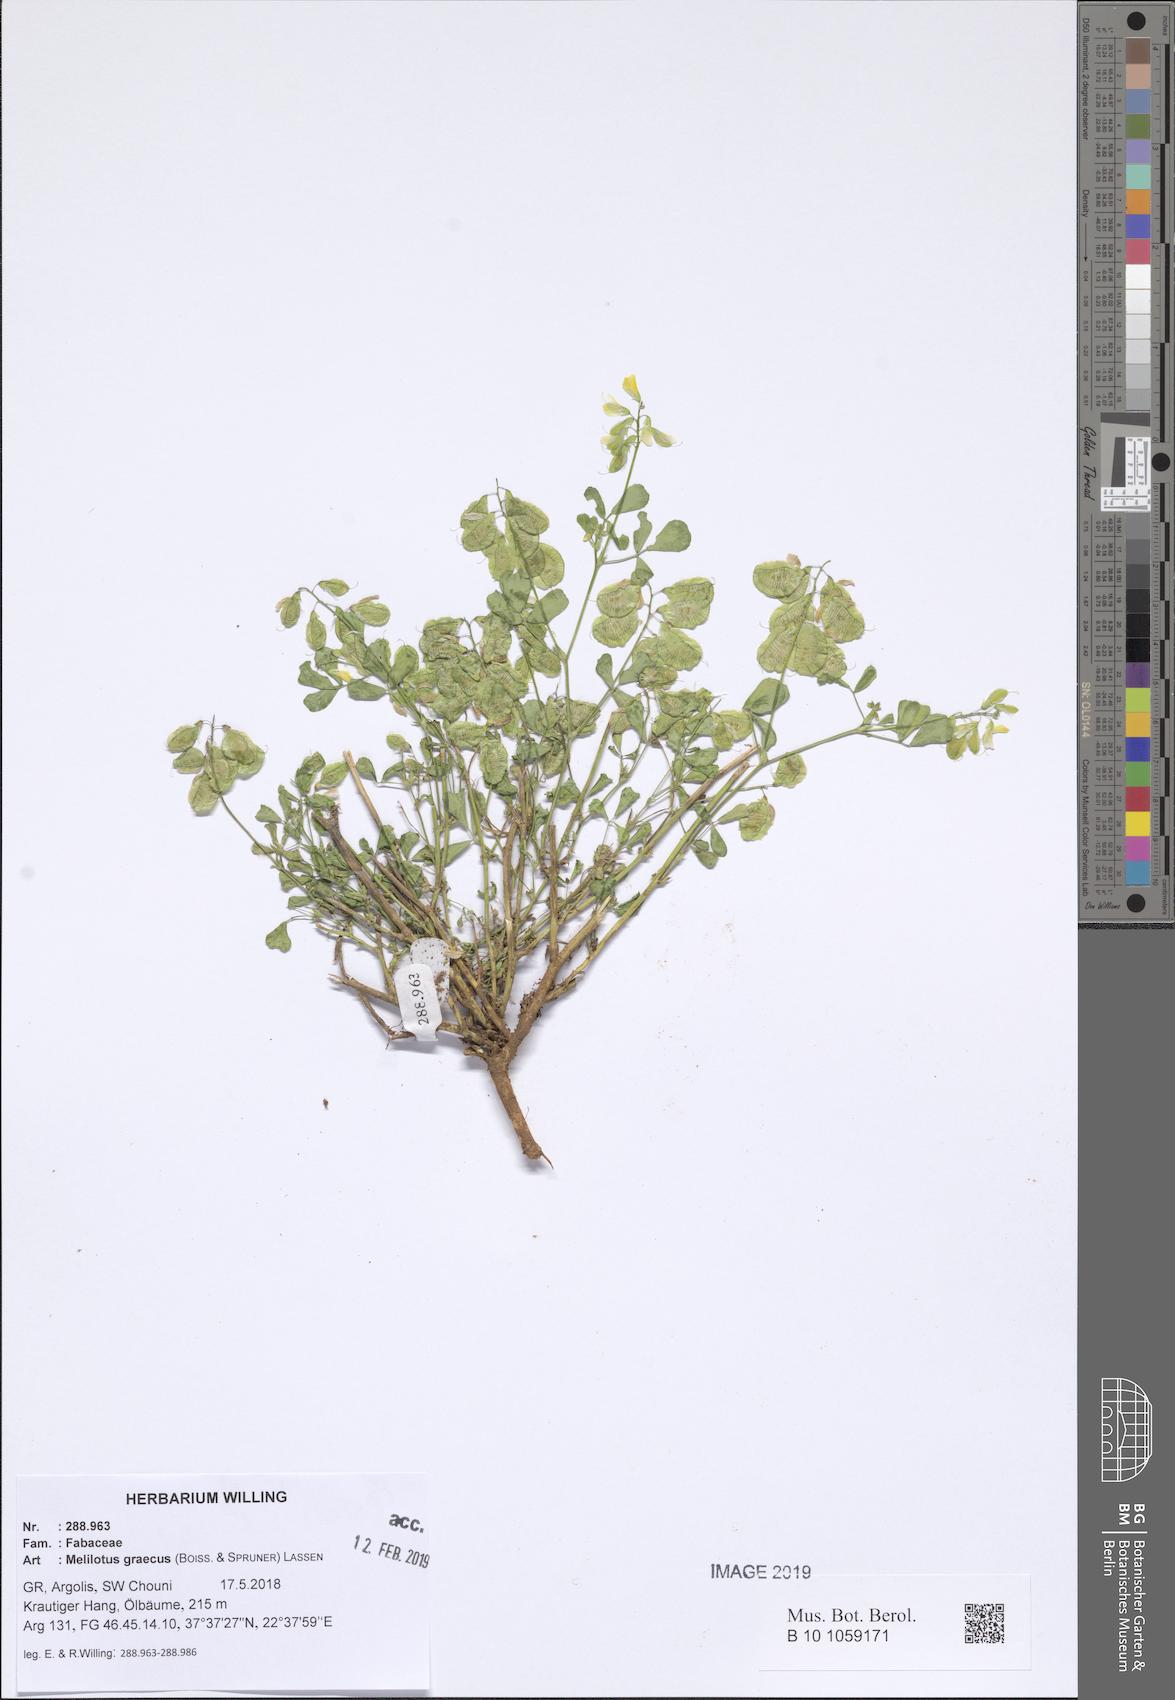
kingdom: Plantae
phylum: Tracheophyta
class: Magnoliopsida
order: Fabales
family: Fabaceae
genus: Trigonella
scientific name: Trigonella graeca
